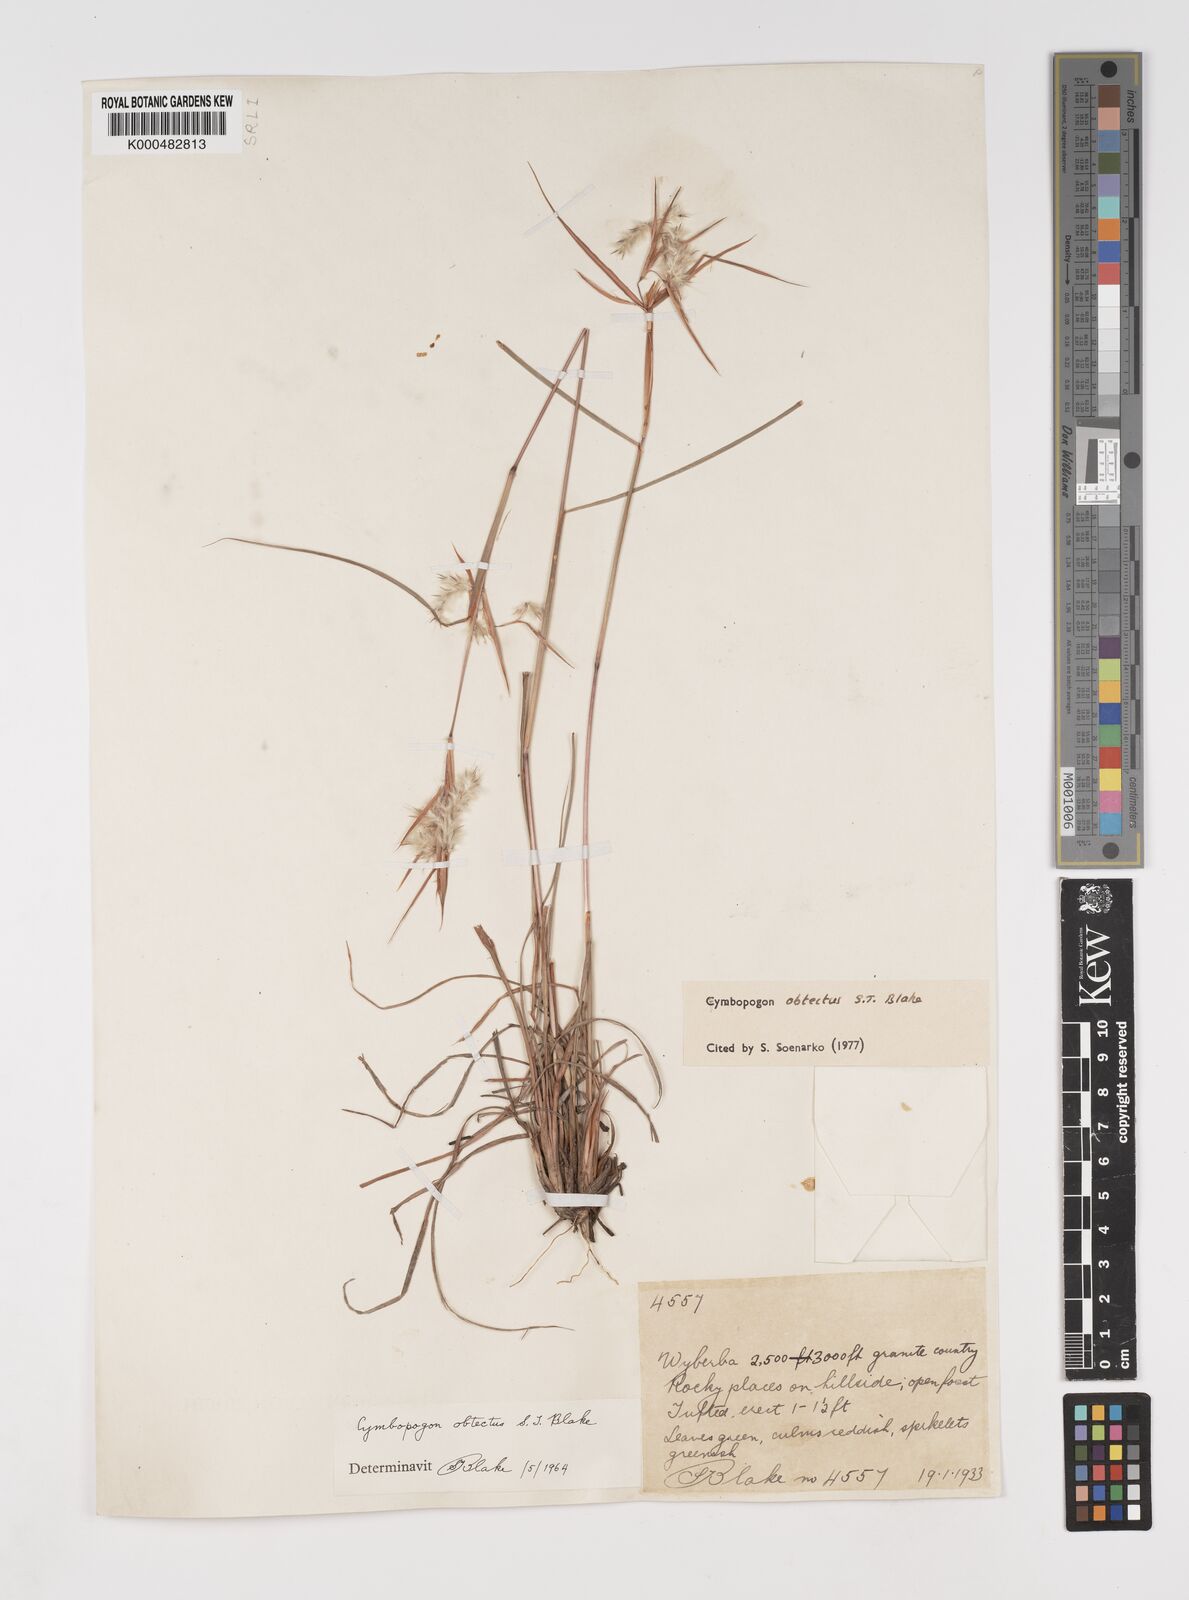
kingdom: Plantae
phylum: Tracheophyta
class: Liliopsida
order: Poales
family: Poaceae
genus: Cymbopogon
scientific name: Cymbopogon obtectus
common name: Silky heads
